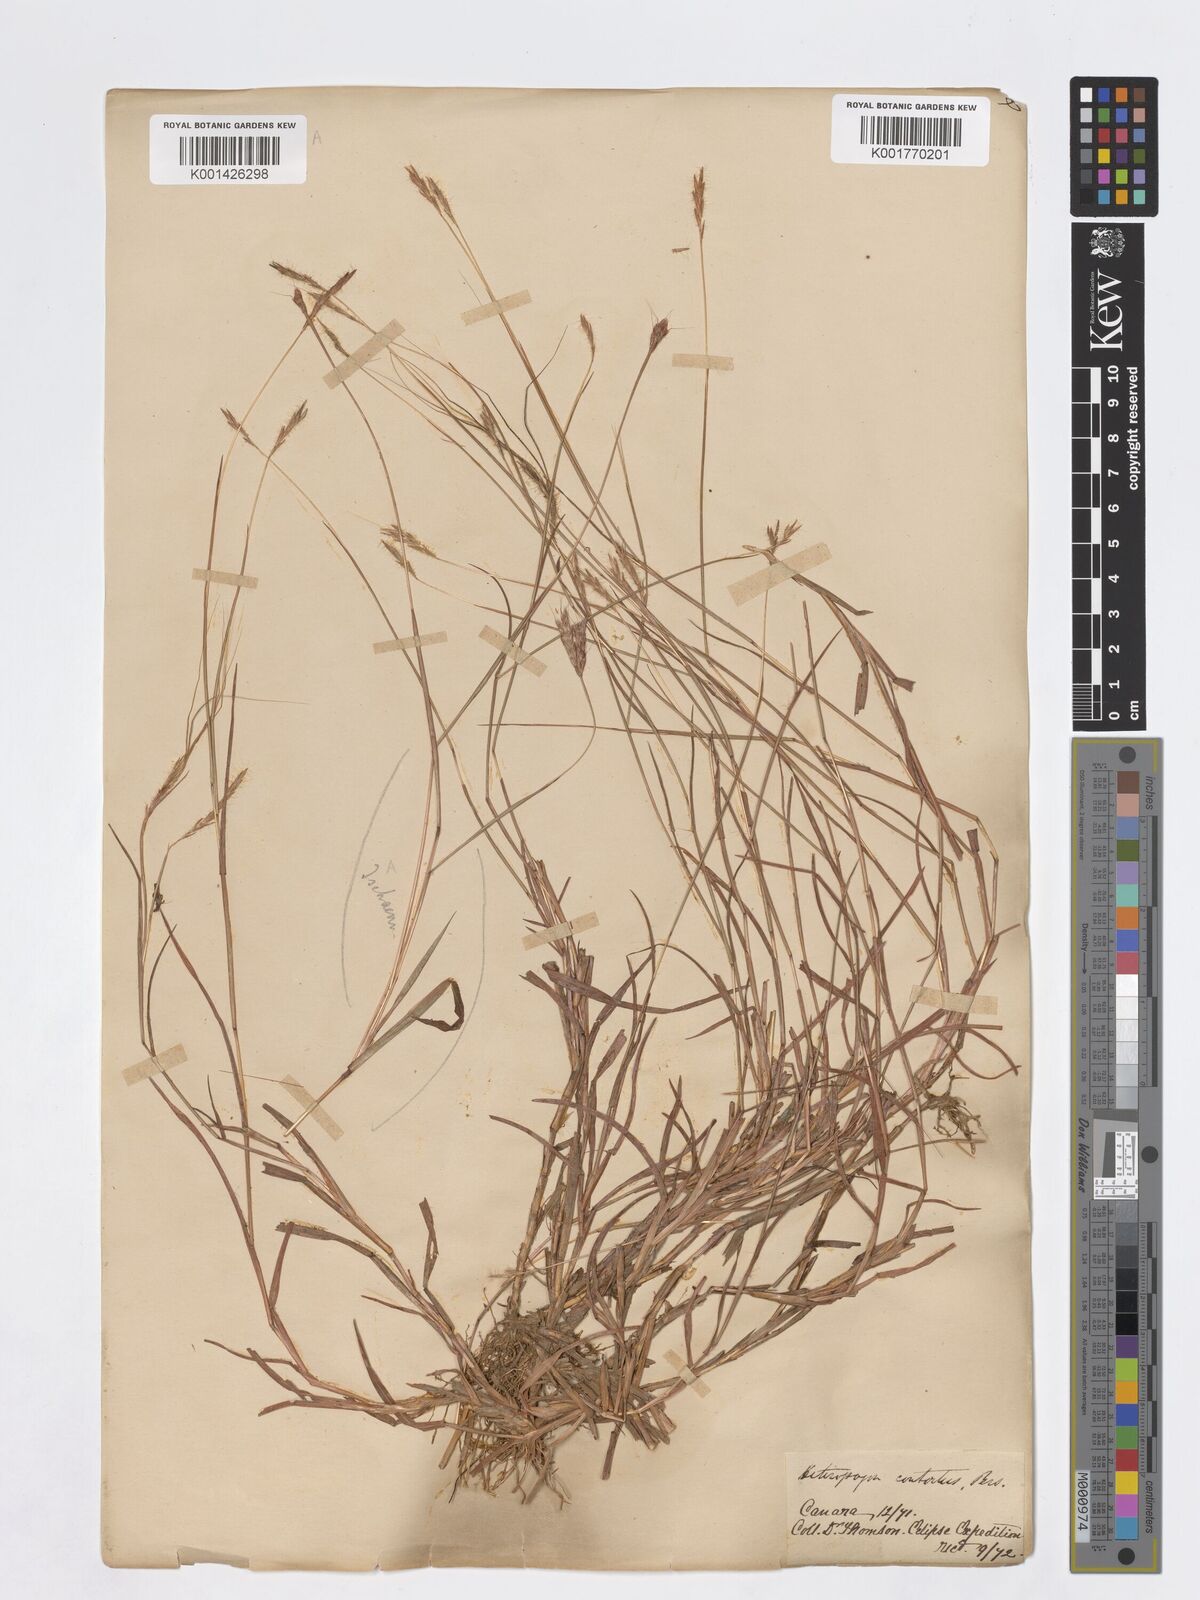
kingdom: Plantae
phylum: Tracheophyta
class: Liliopsida
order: Poales
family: Poaceae
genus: Heteropogon
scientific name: Heteropogon contortus
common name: Tanglehead
